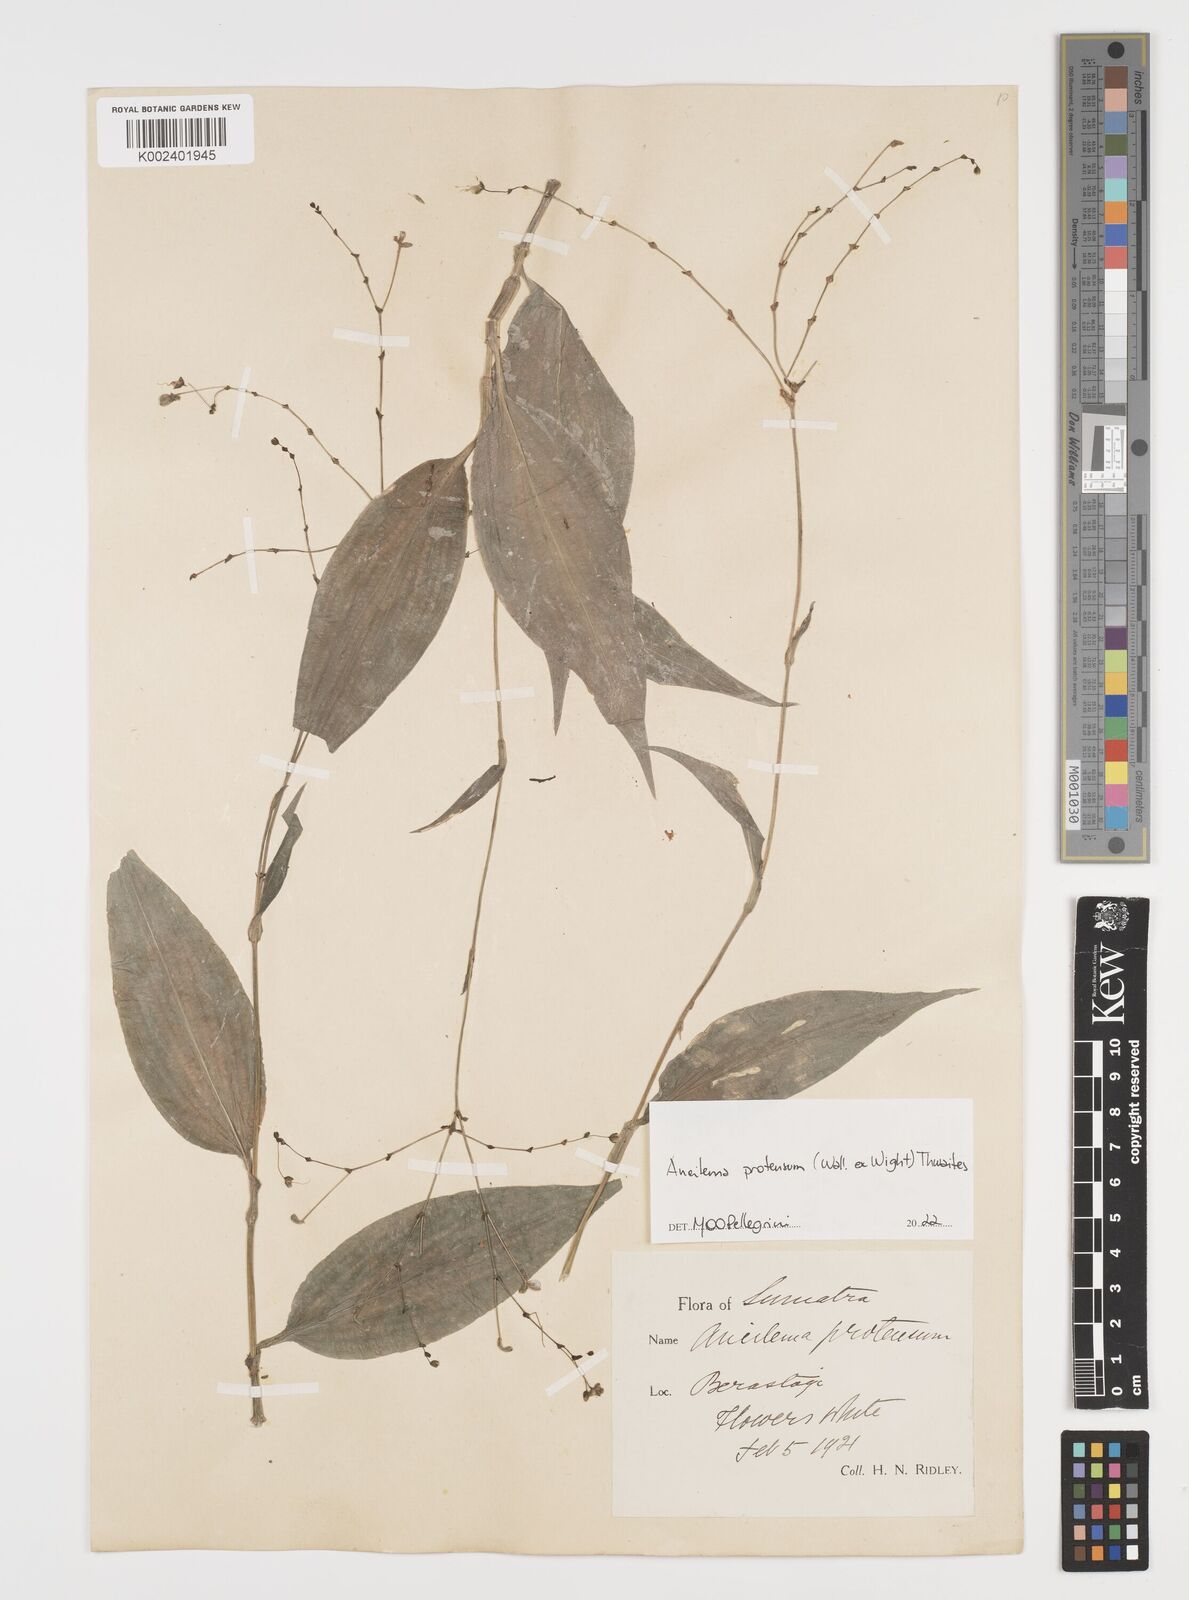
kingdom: Plantae
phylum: Tracheophyta
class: Liliopsida
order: Commelinales
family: Commelinaceae
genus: Rhopalephora
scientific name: Rhopalephora
